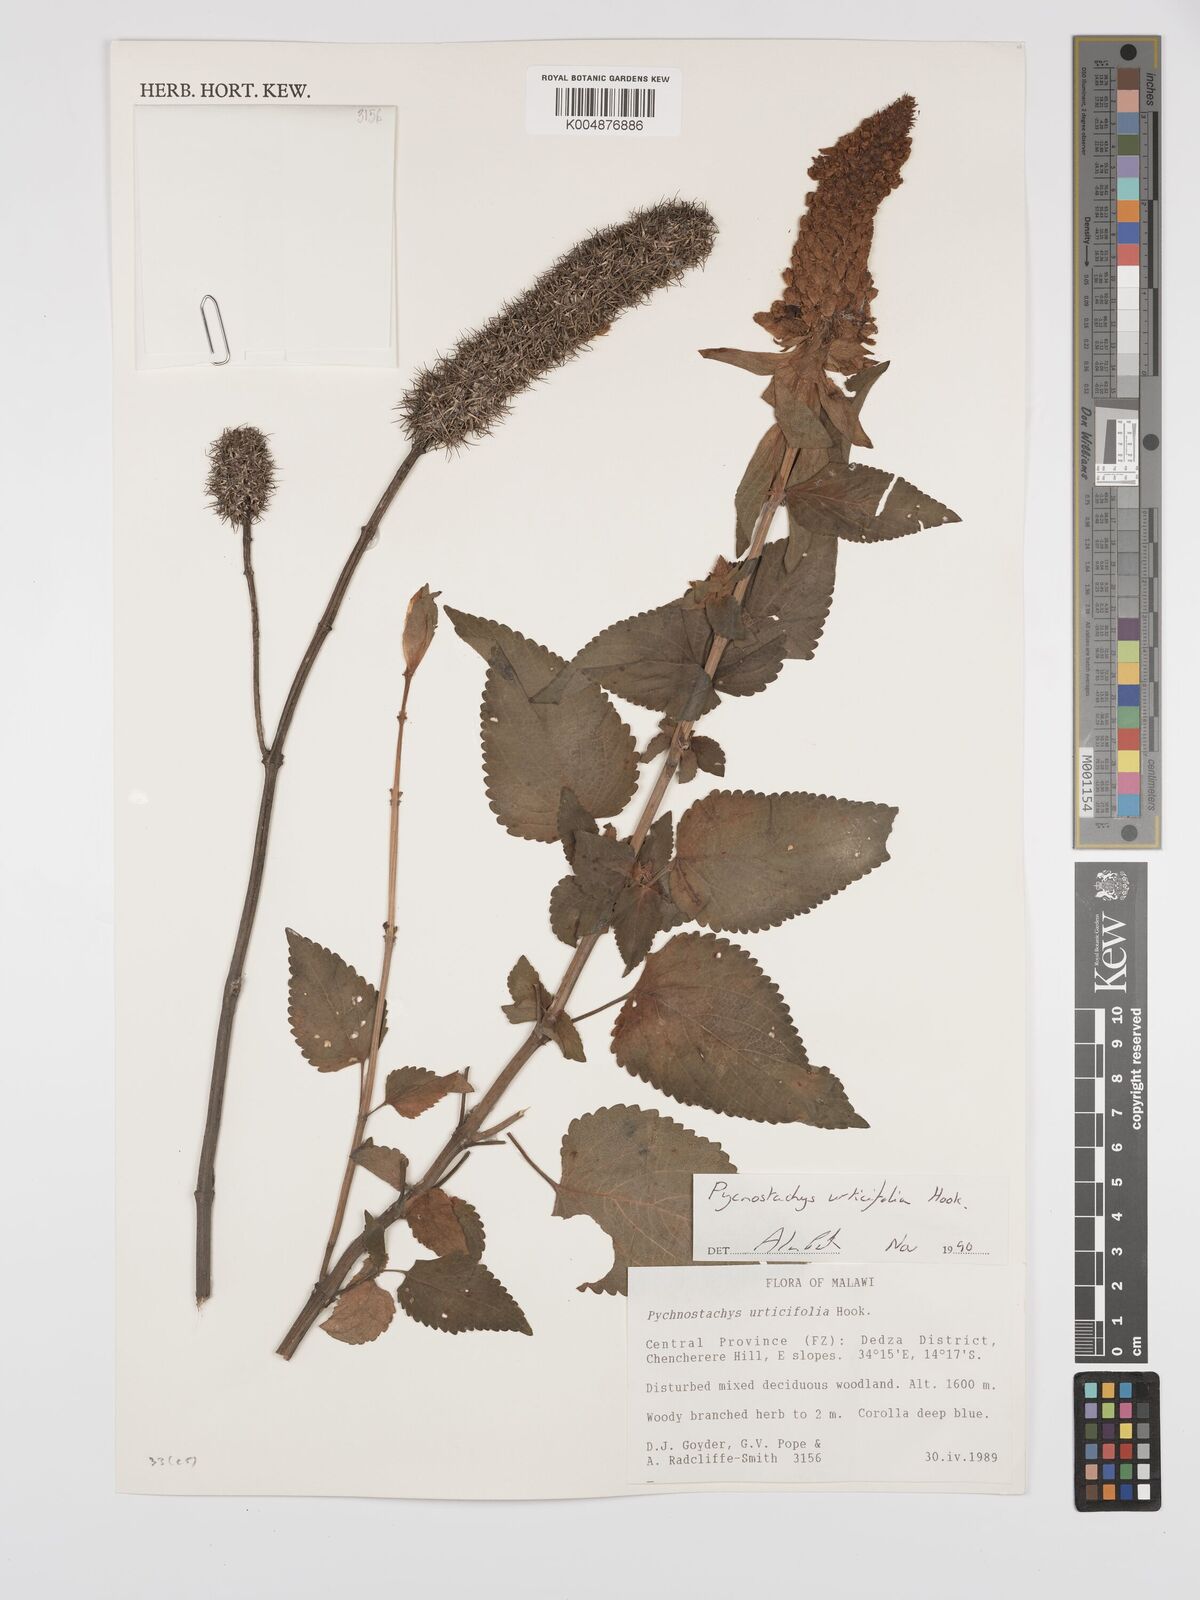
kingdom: Plantae
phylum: Tracheophyta
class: Magnoliopsida
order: Lamiales
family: Lamiaceae
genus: Coleus
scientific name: Coleus
